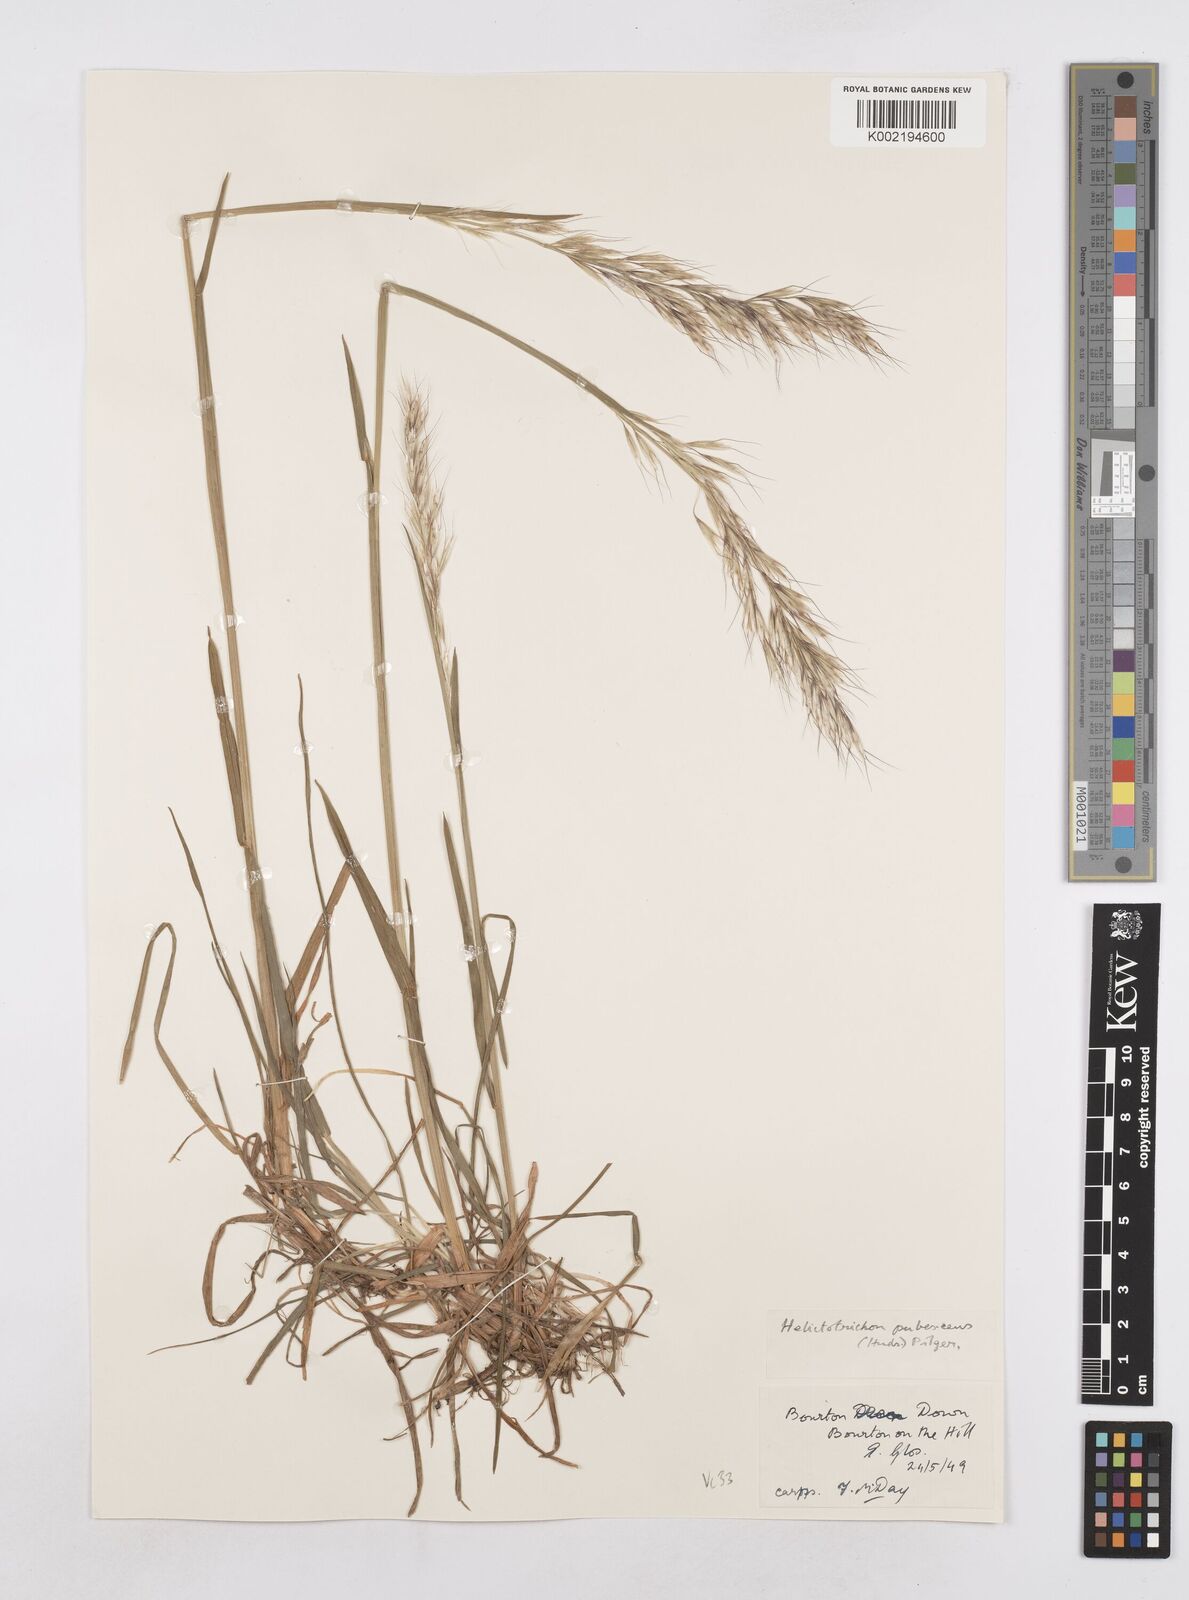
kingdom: Plantae
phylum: Tracheophyta
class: Liliopsida
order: Poales
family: Poaceae
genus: Avenula
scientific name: Avenula pubescens
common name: Downy alpine oatgrass
